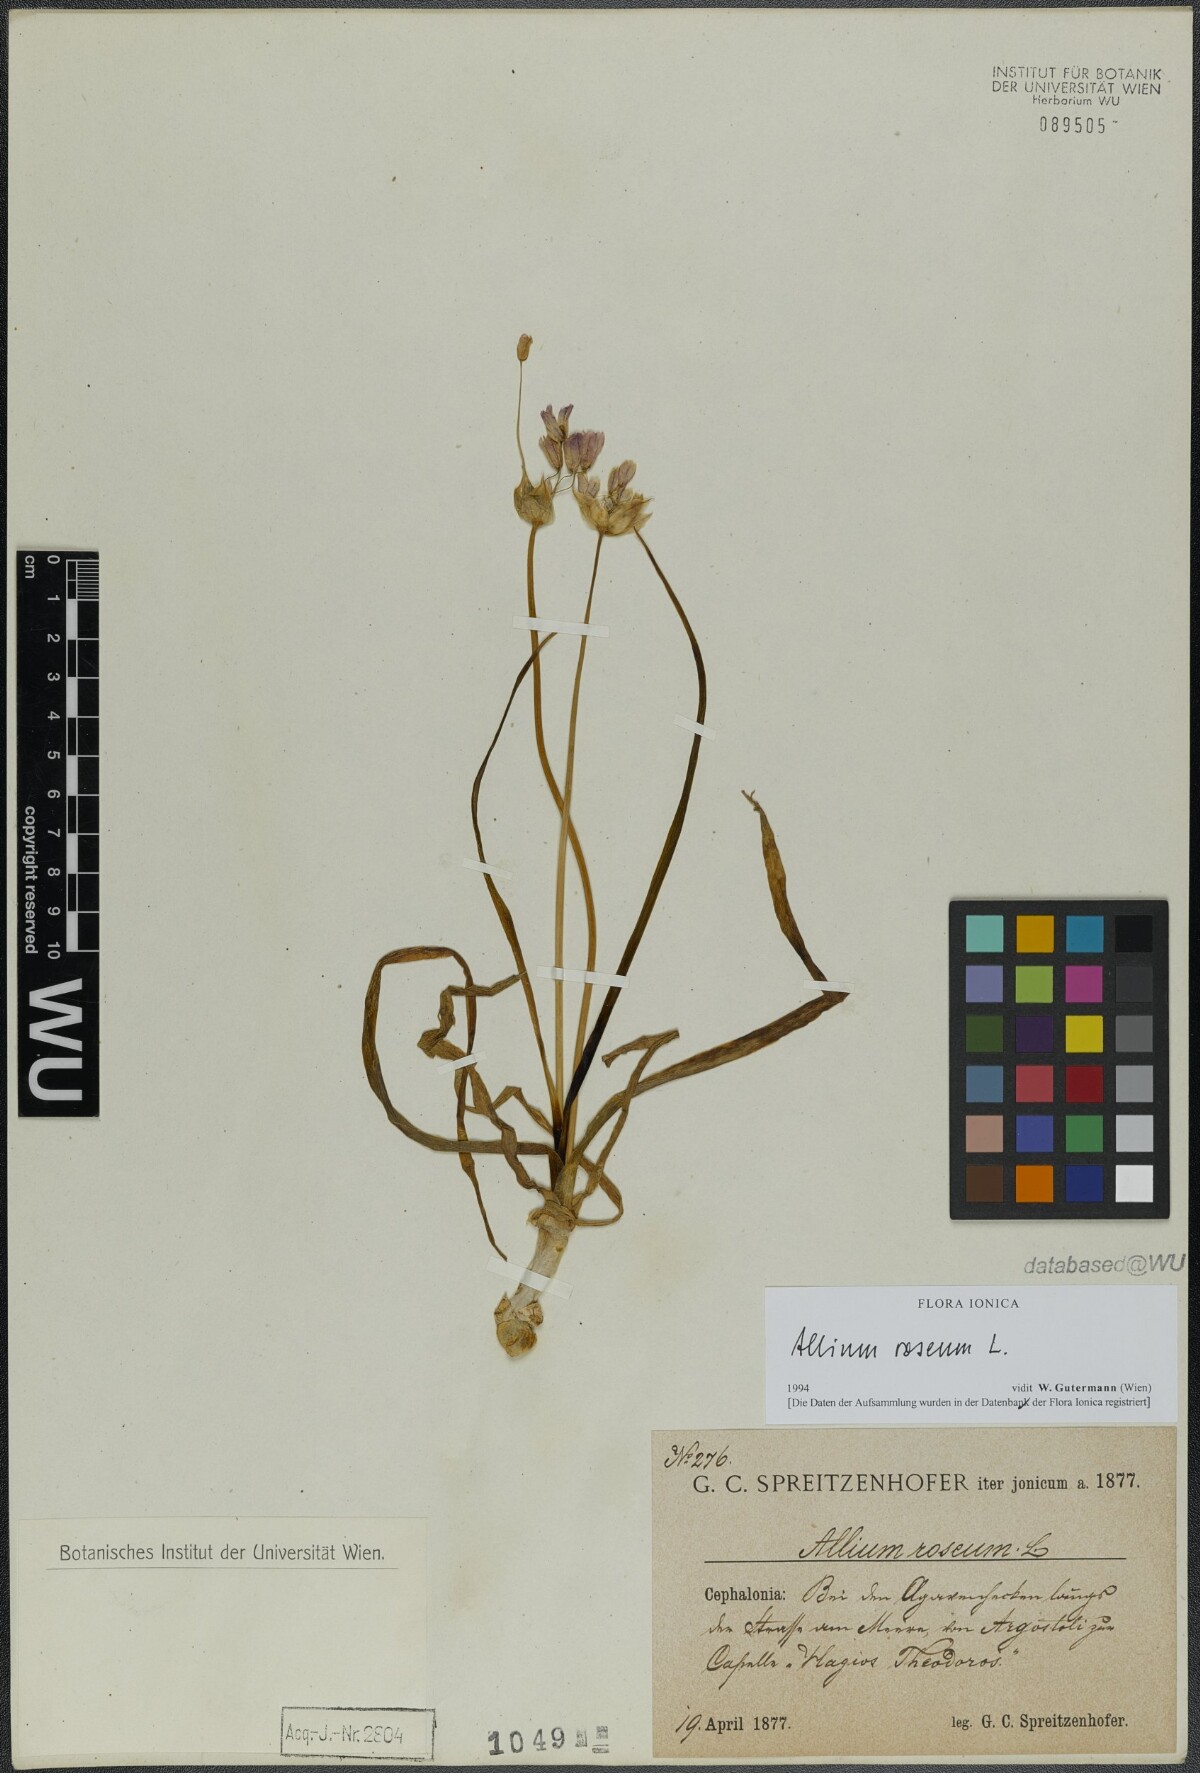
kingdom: Plantae
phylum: Tracheophyta
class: Liliopsida
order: Asparagales
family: Amaryllidaceae
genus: Allium
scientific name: Allium roseum
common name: Rosy garlic
